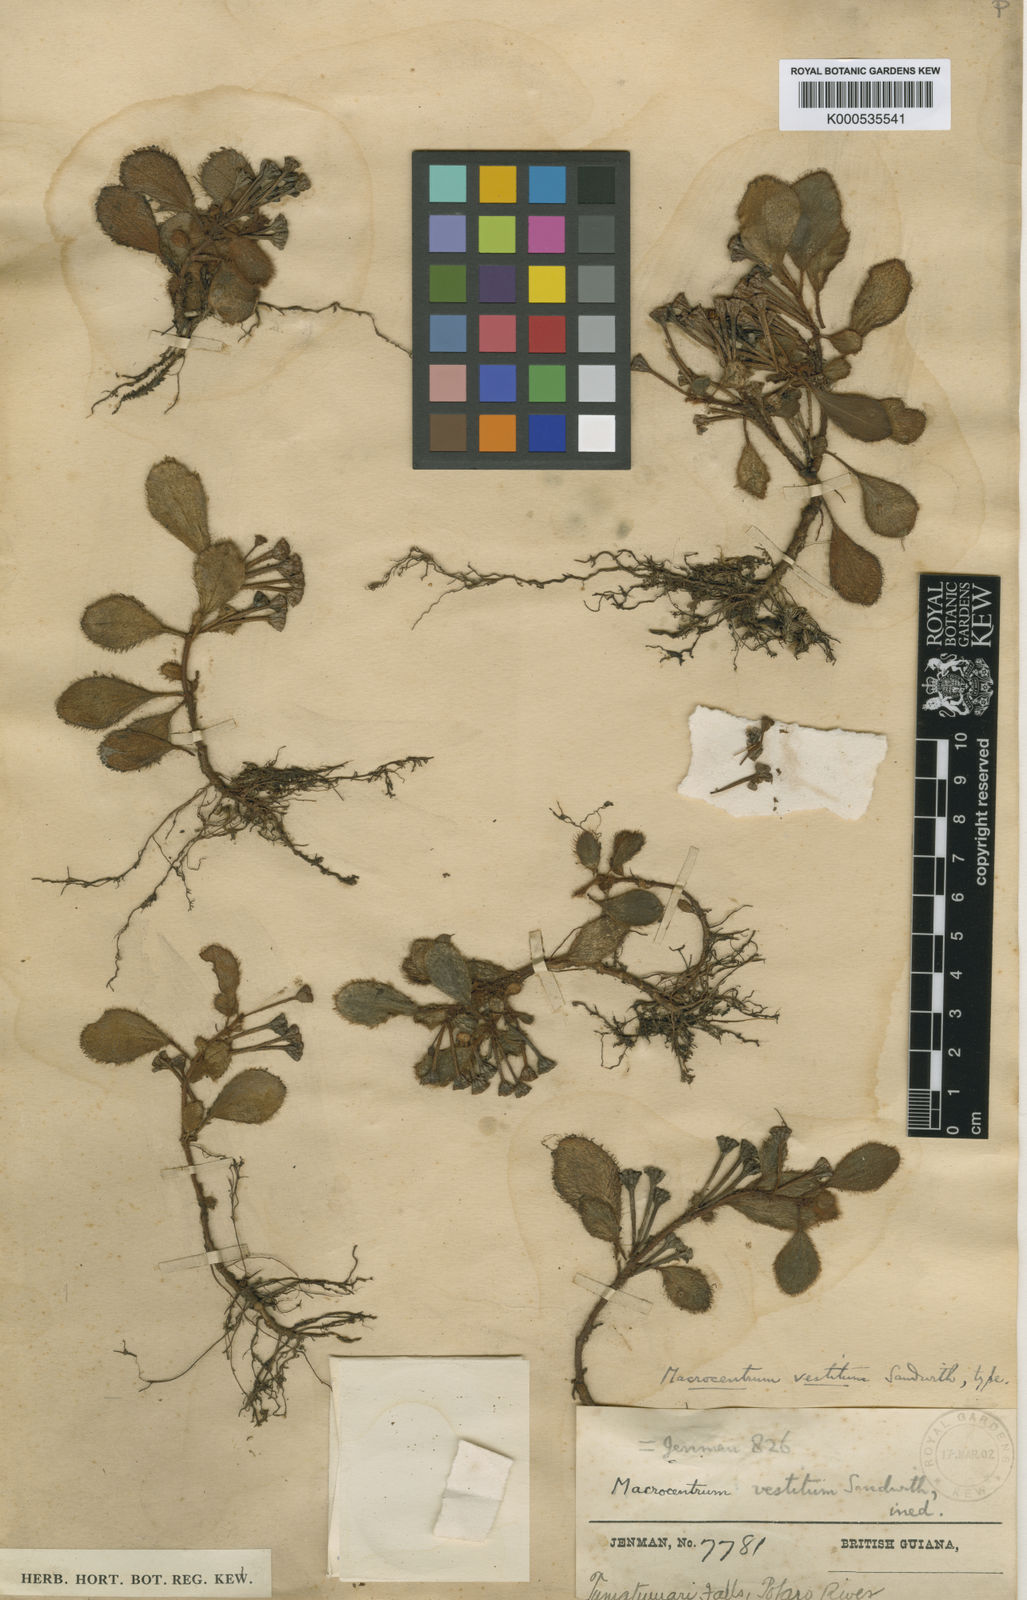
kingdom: Plantae
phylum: Tracheophyta
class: Magnoliopsida
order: Myrtales
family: Melastomataceae
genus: Macrocentrum
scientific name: Macrocentrum vestitum
